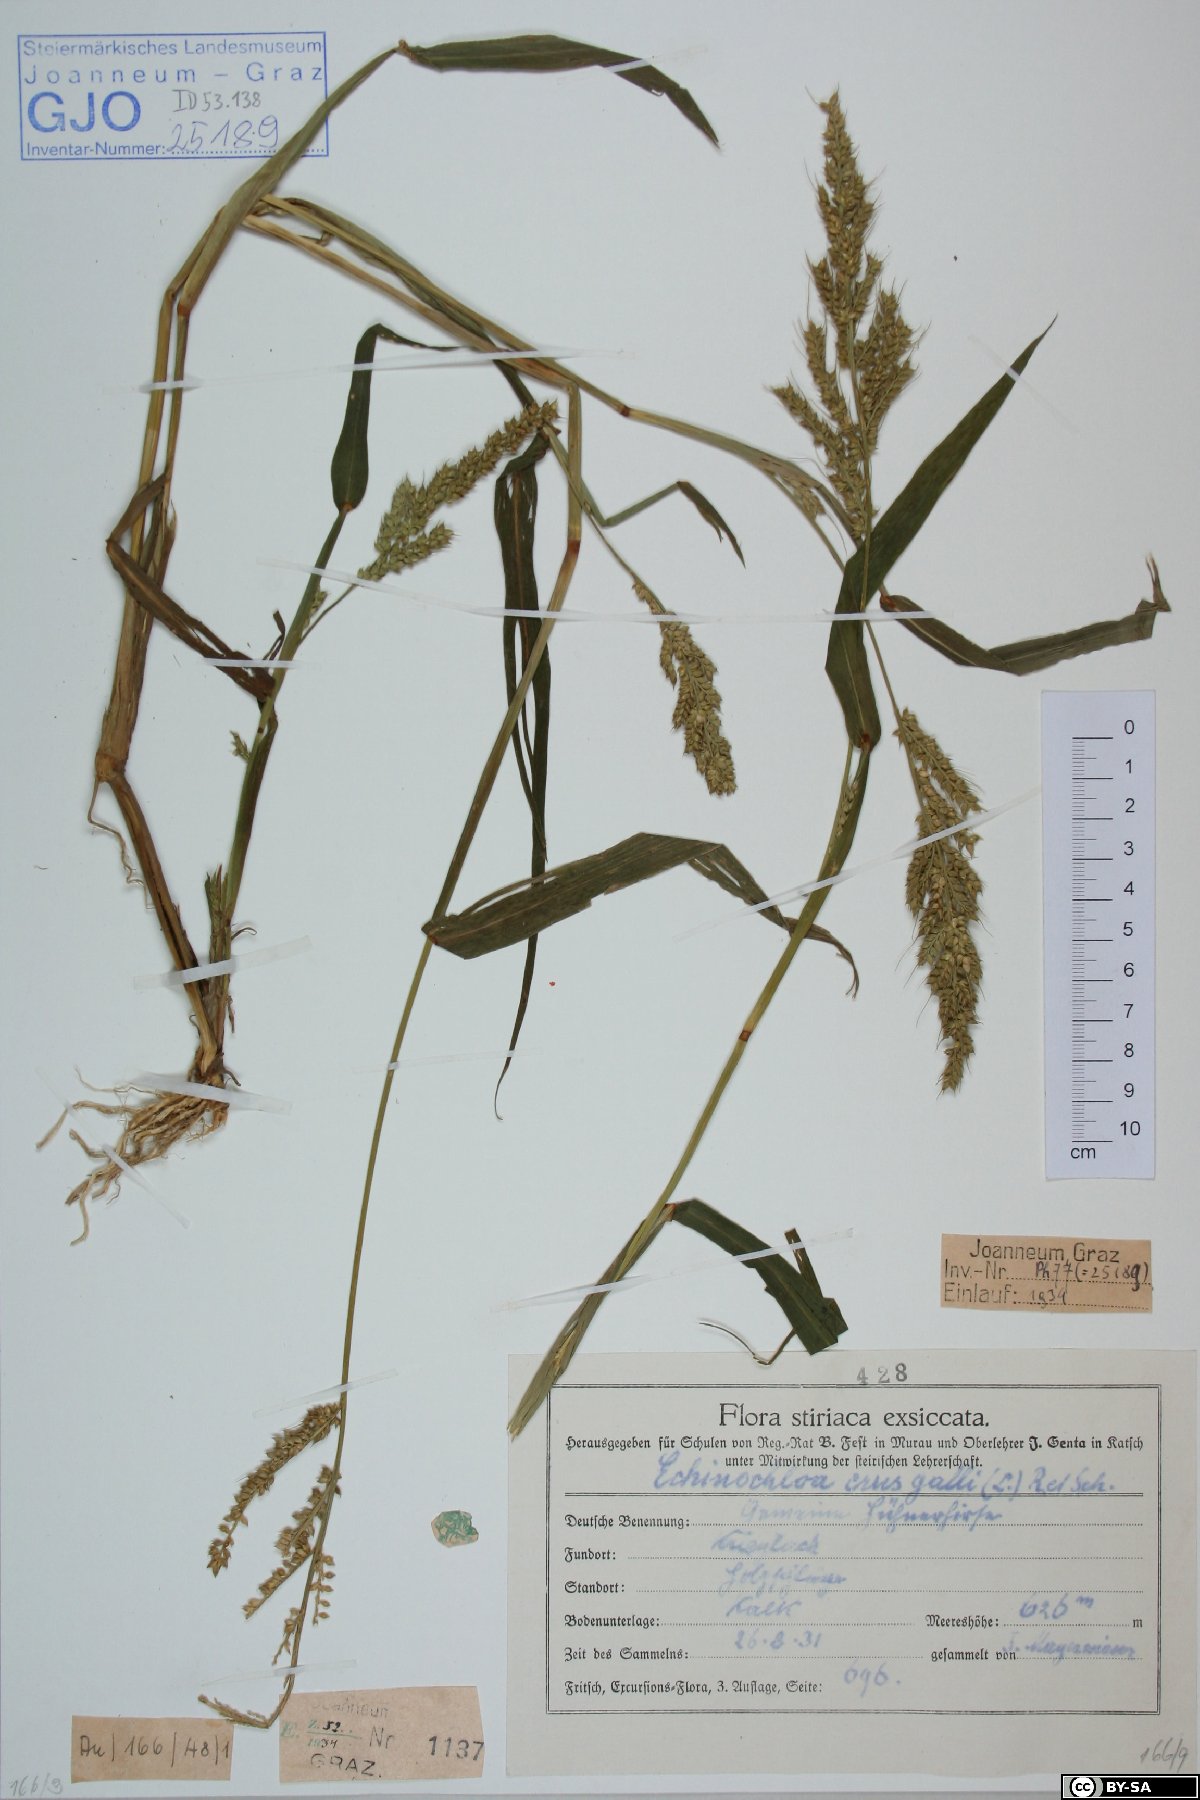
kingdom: Plantae
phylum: Tracheophyta
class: Liliopsida
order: Poales
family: Poaceae
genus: Echinochloa
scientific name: Echinochloa crus-galli
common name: Cockspur
